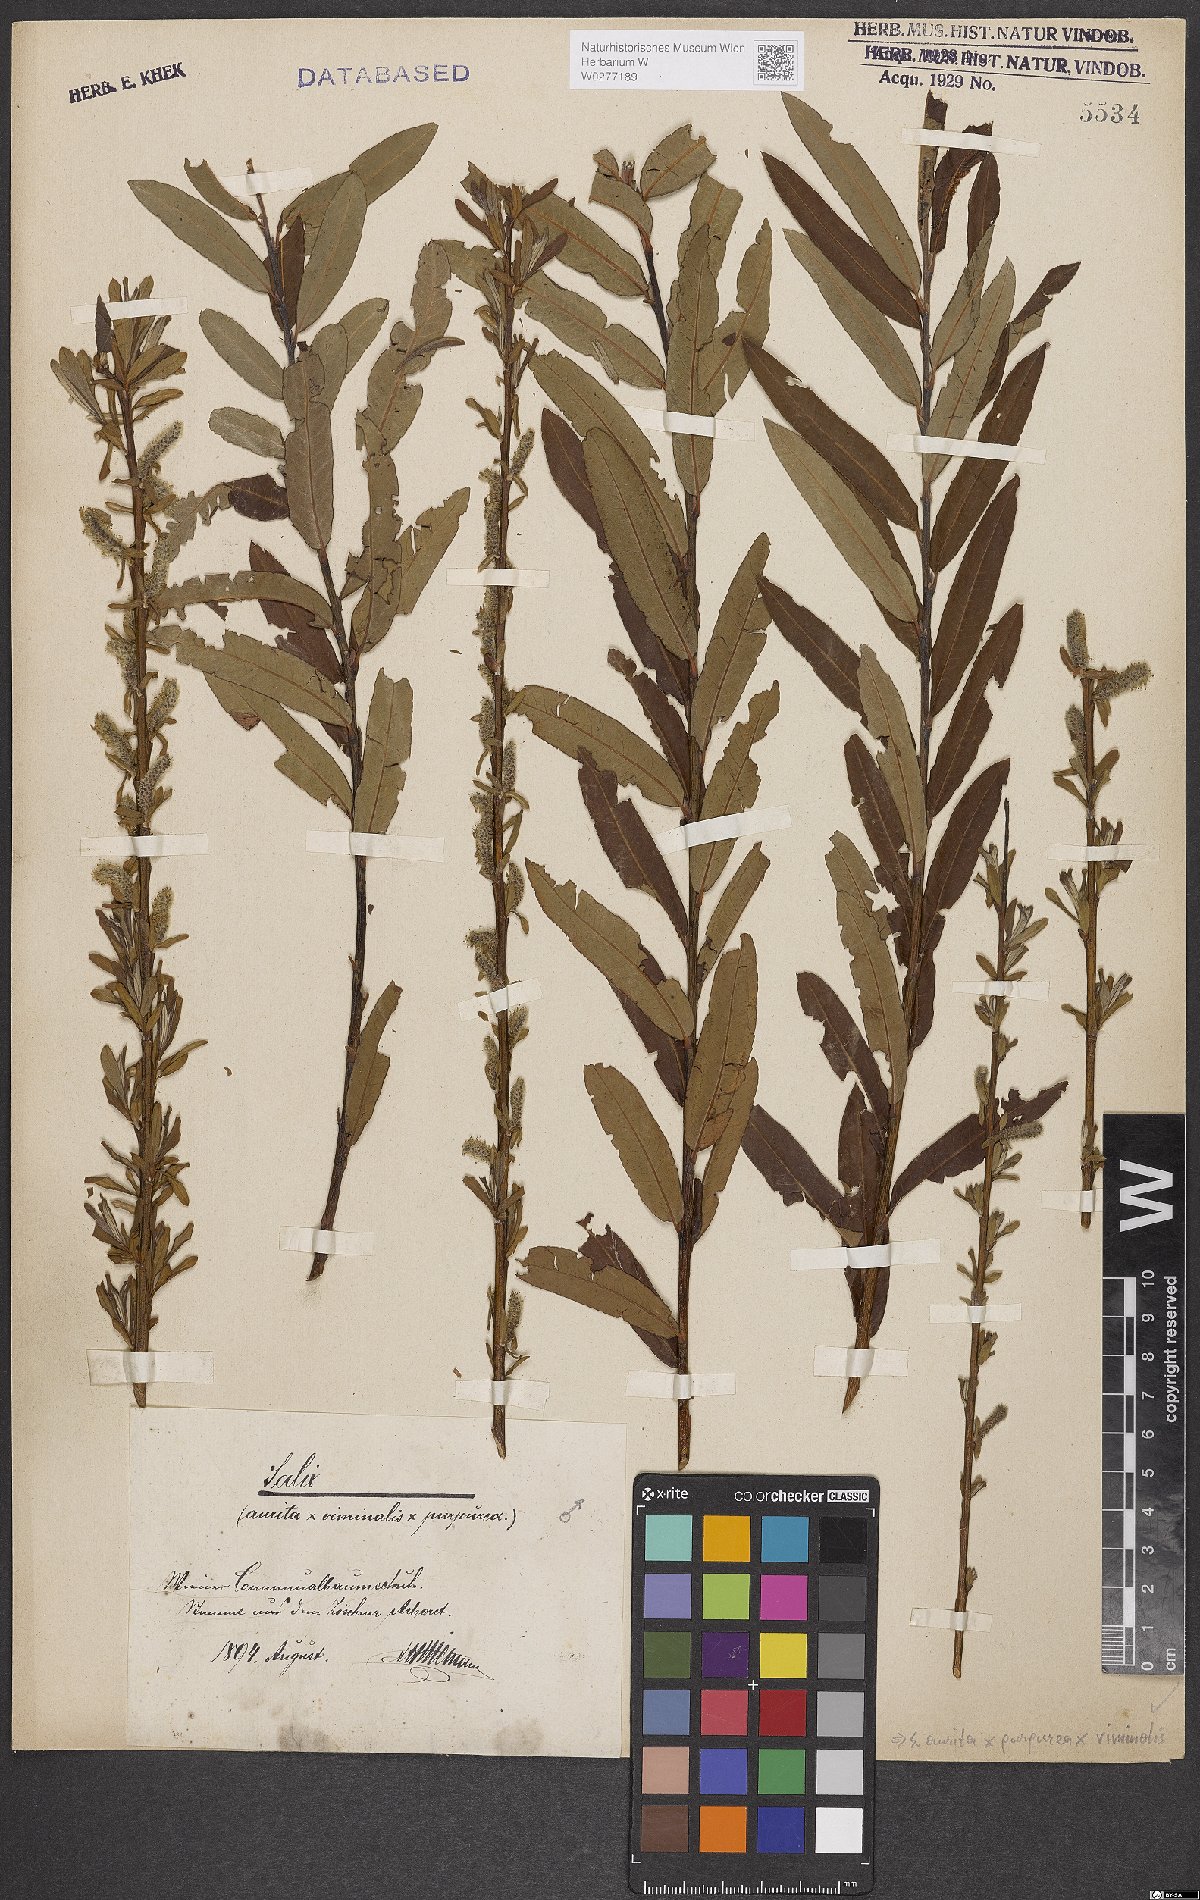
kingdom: Plantae
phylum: Tracheophyta
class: Magnoliopsida
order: Malpighiales
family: Salicaceae
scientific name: Salicaceae
